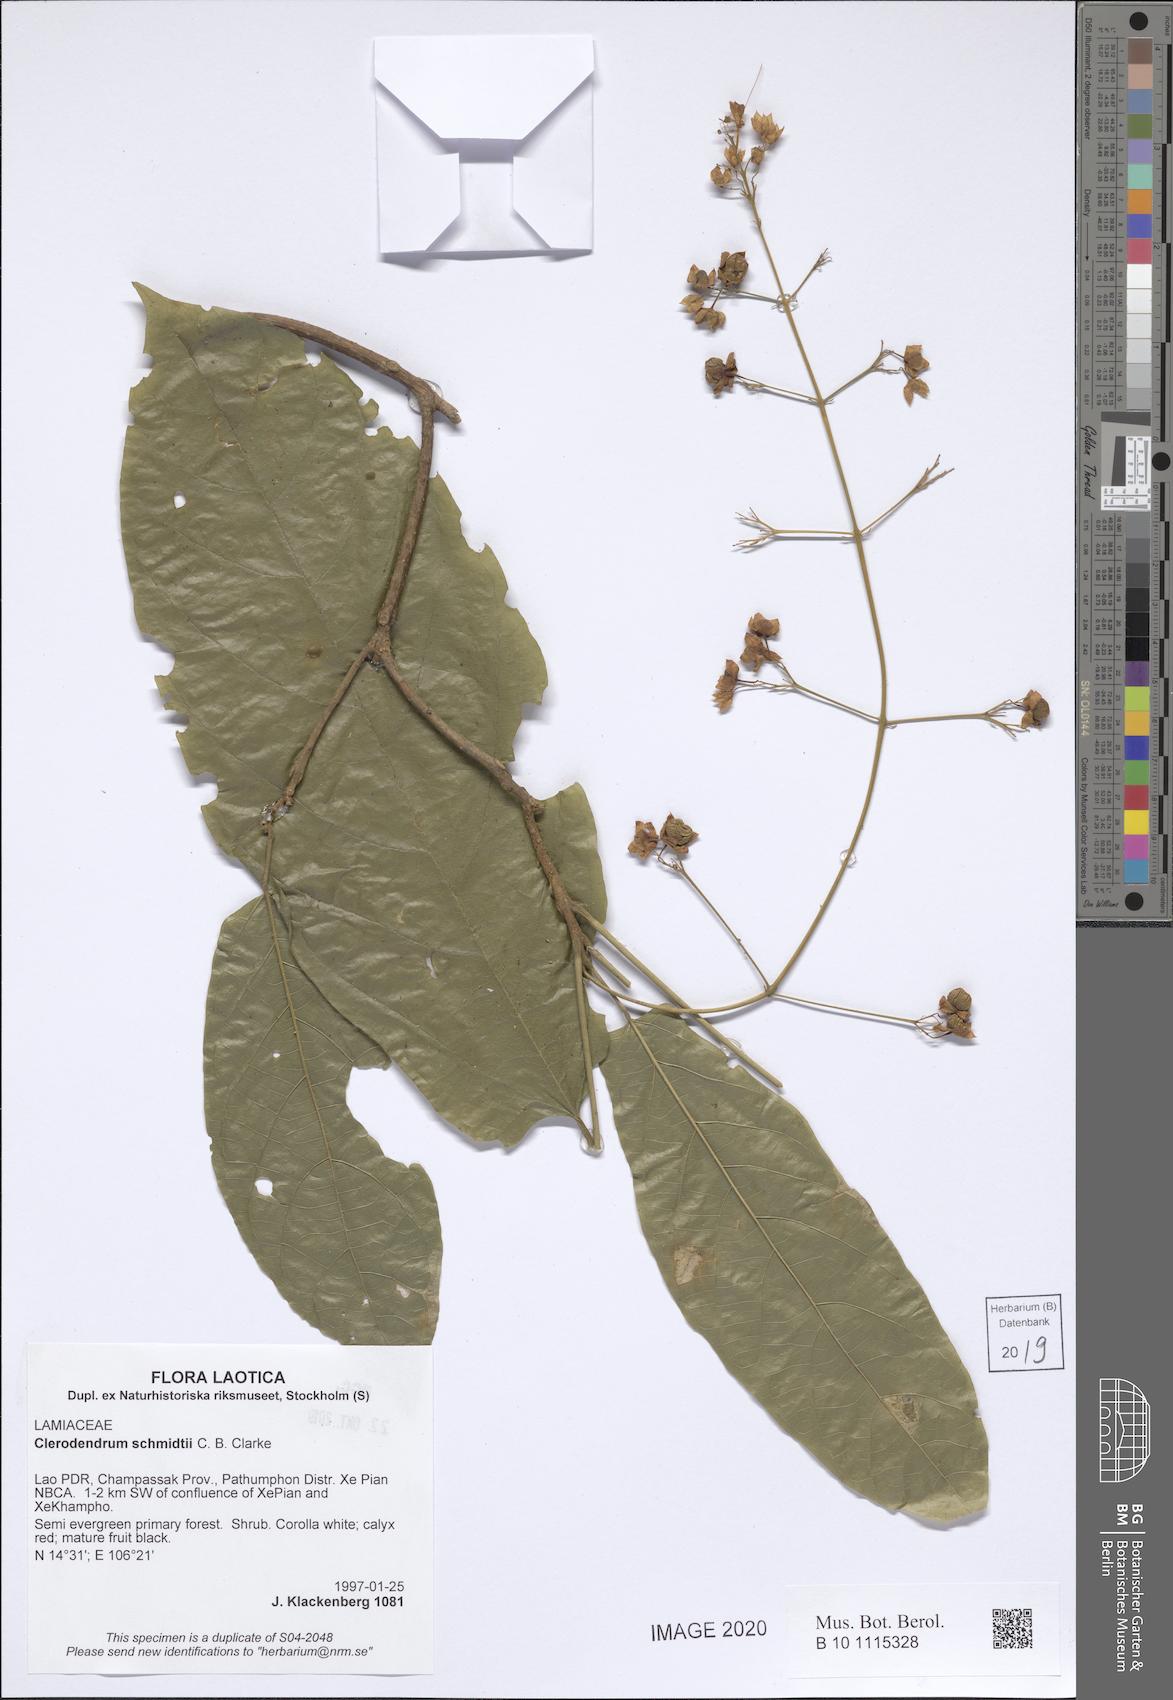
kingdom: Plantae
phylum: Tracheophyta
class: Magnoliopsida
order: Lamiales
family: Lamiaceae
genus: Clerodendrum
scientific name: Clerodendrum schmidtii
